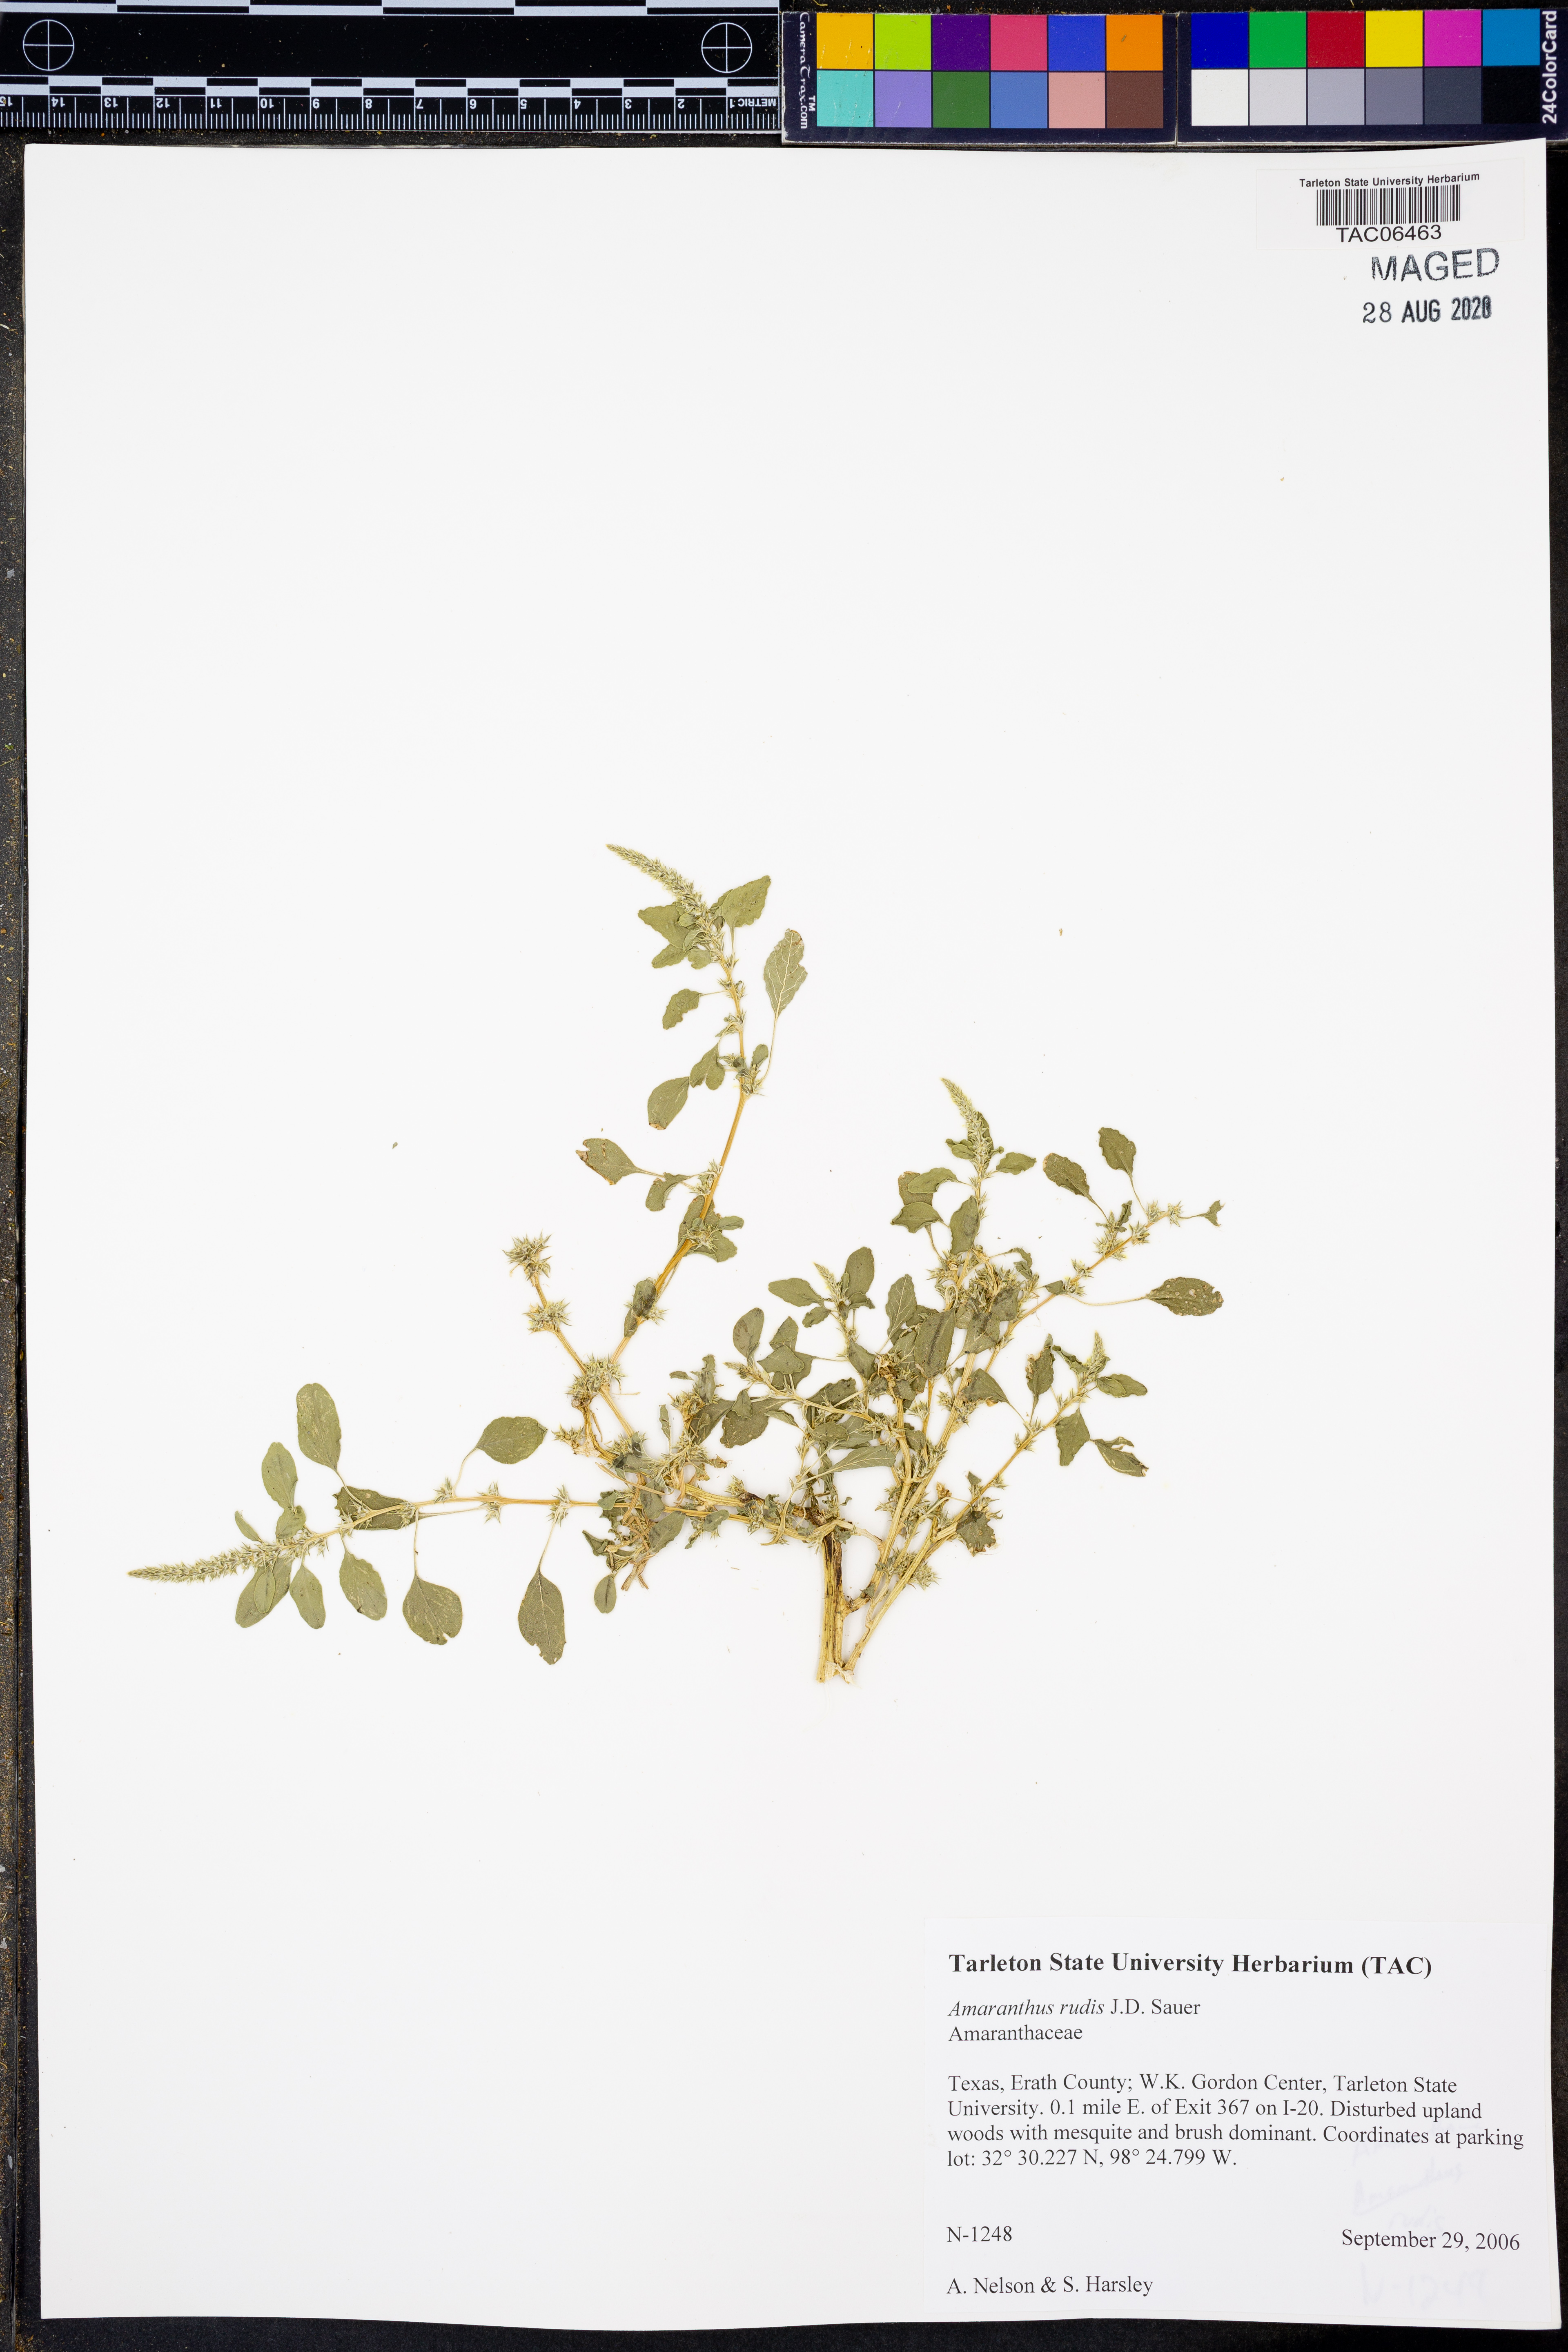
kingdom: Plantae
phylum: Tracheophyta
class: Magnoliopsida
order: Caryophyllales
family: Amaranthaceae
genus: Amaranthus
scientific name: Amaranthus tuberculatus
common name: Rough-fruit amaranth
